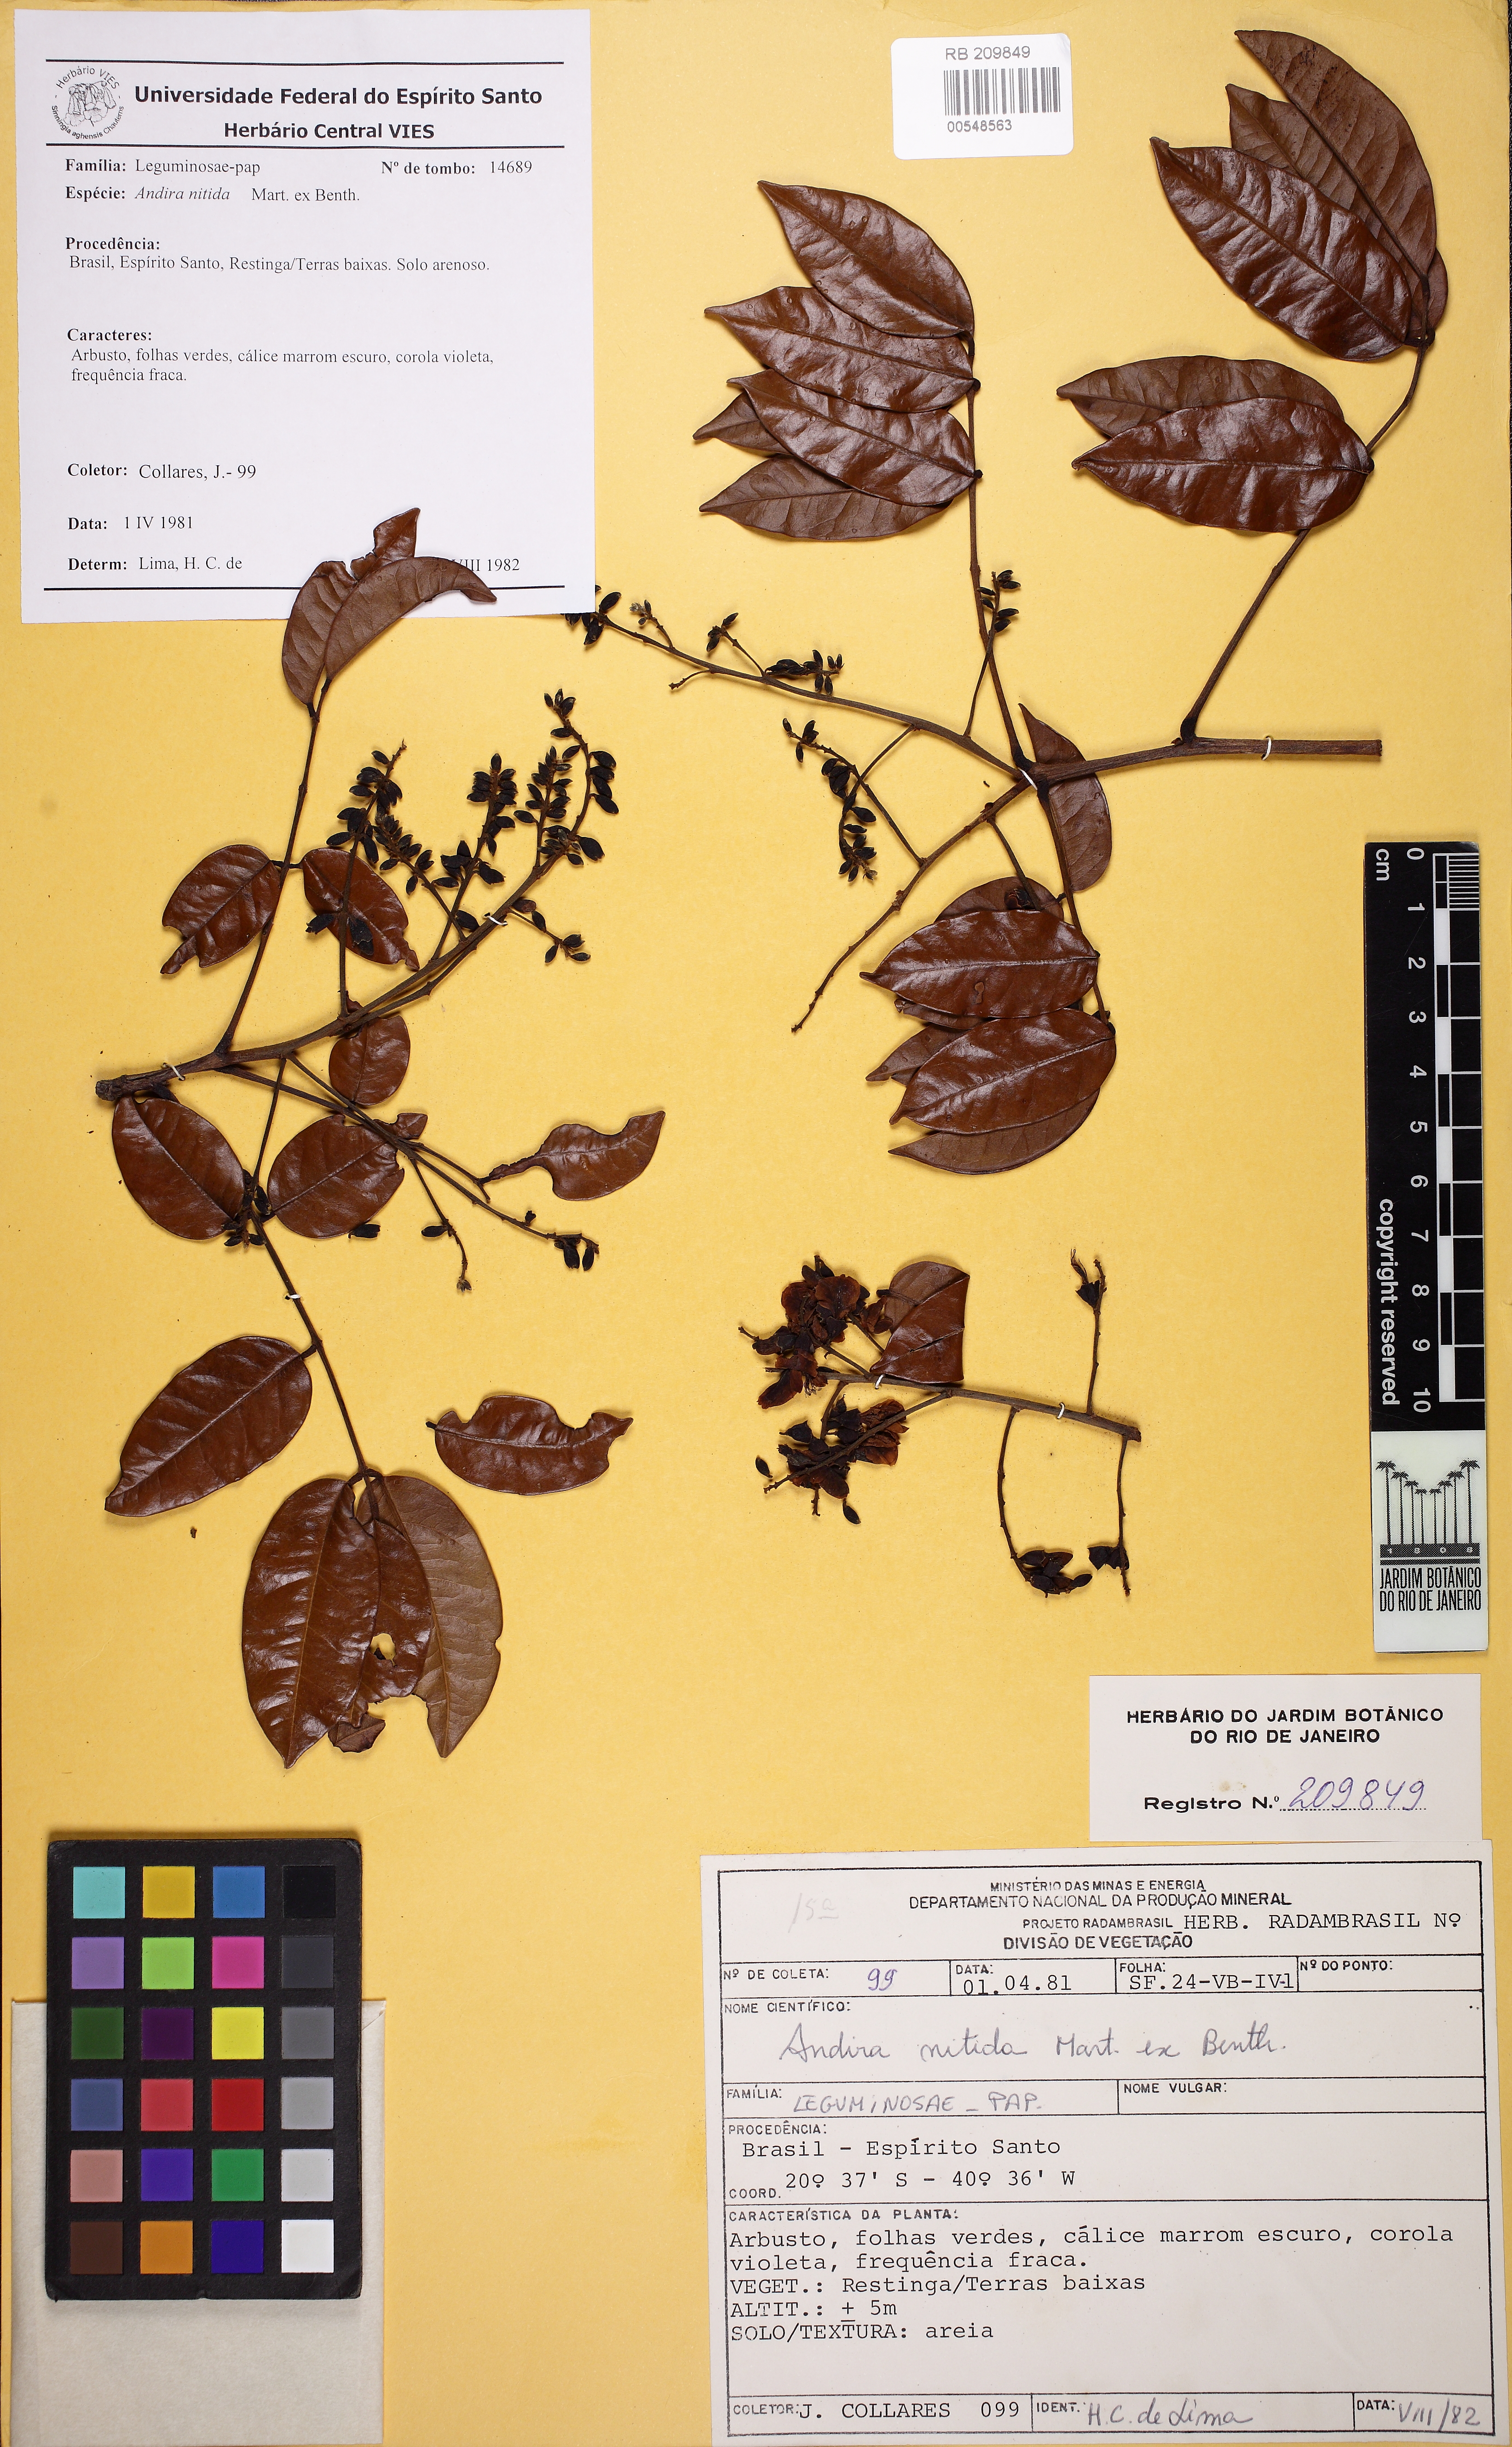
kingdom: Plantae
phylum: Tracheophyta
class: Magnoliopsida
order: Fabales
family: Fabaceae
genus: Andira
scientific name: Andira nitida
